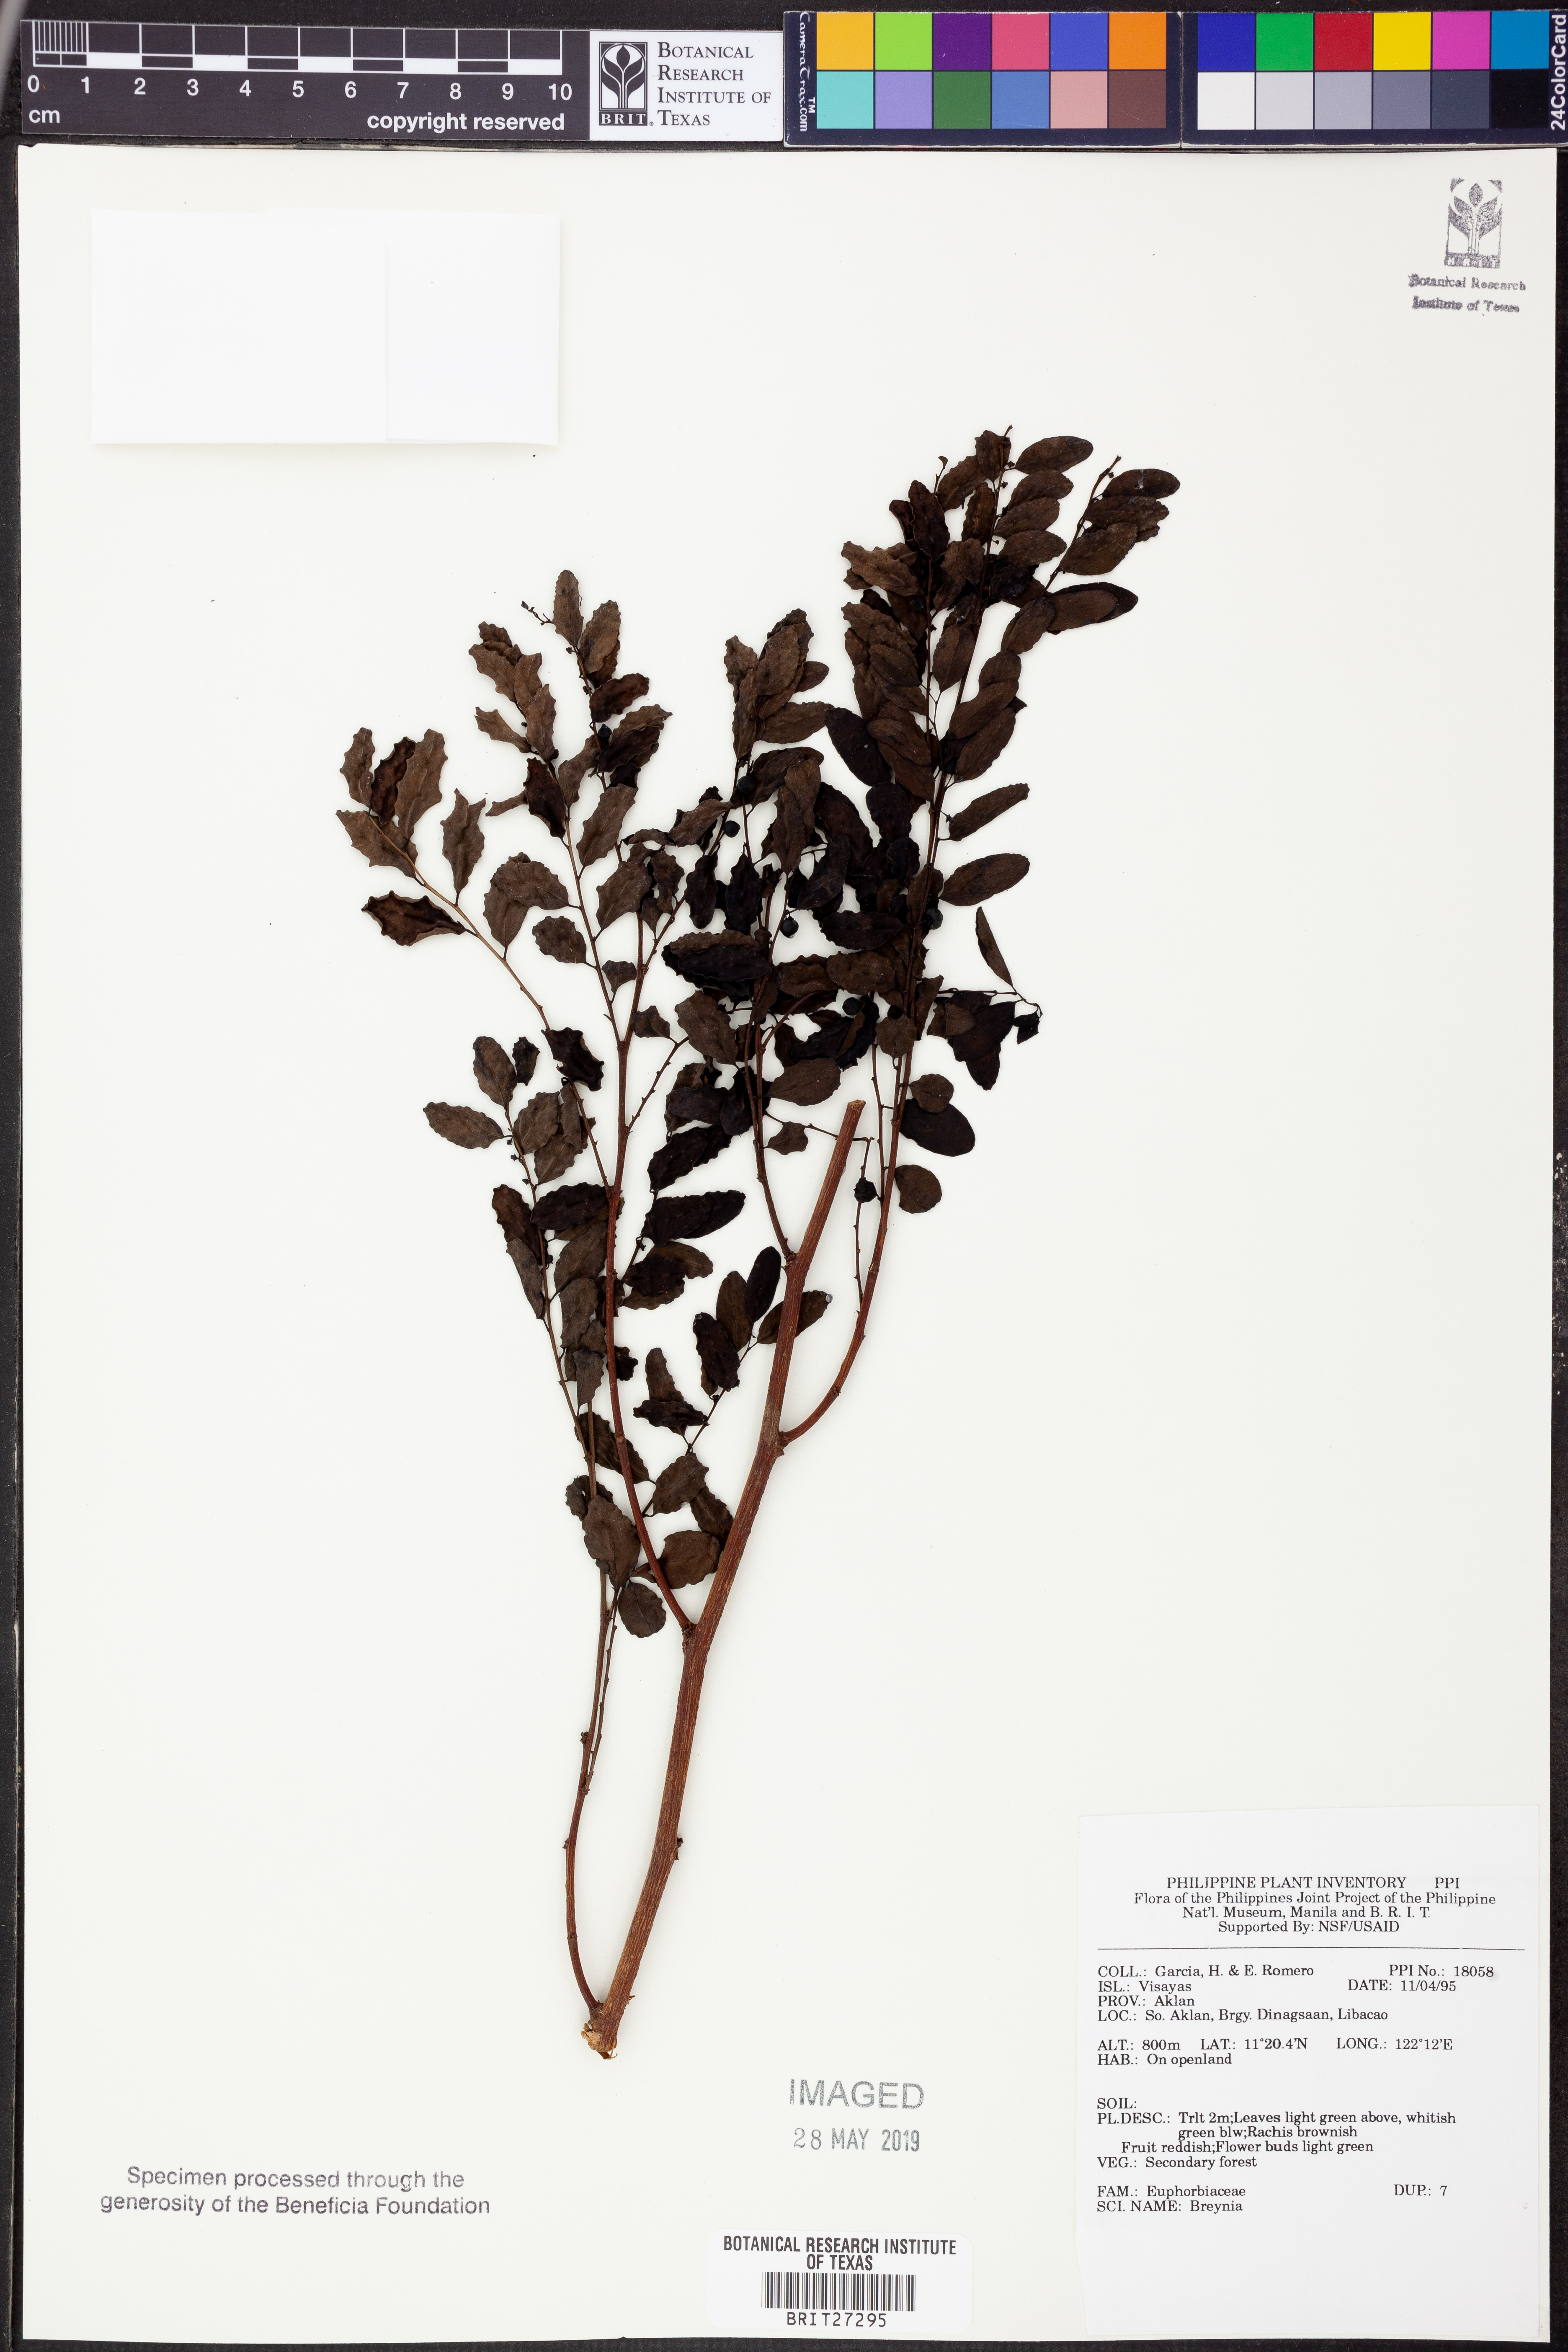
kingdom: Plantae
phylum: Tracheophyta
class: Magnoliopsida
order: Malpighiales
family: Phyllanthaceae
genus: Breynia
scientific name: Breynia
